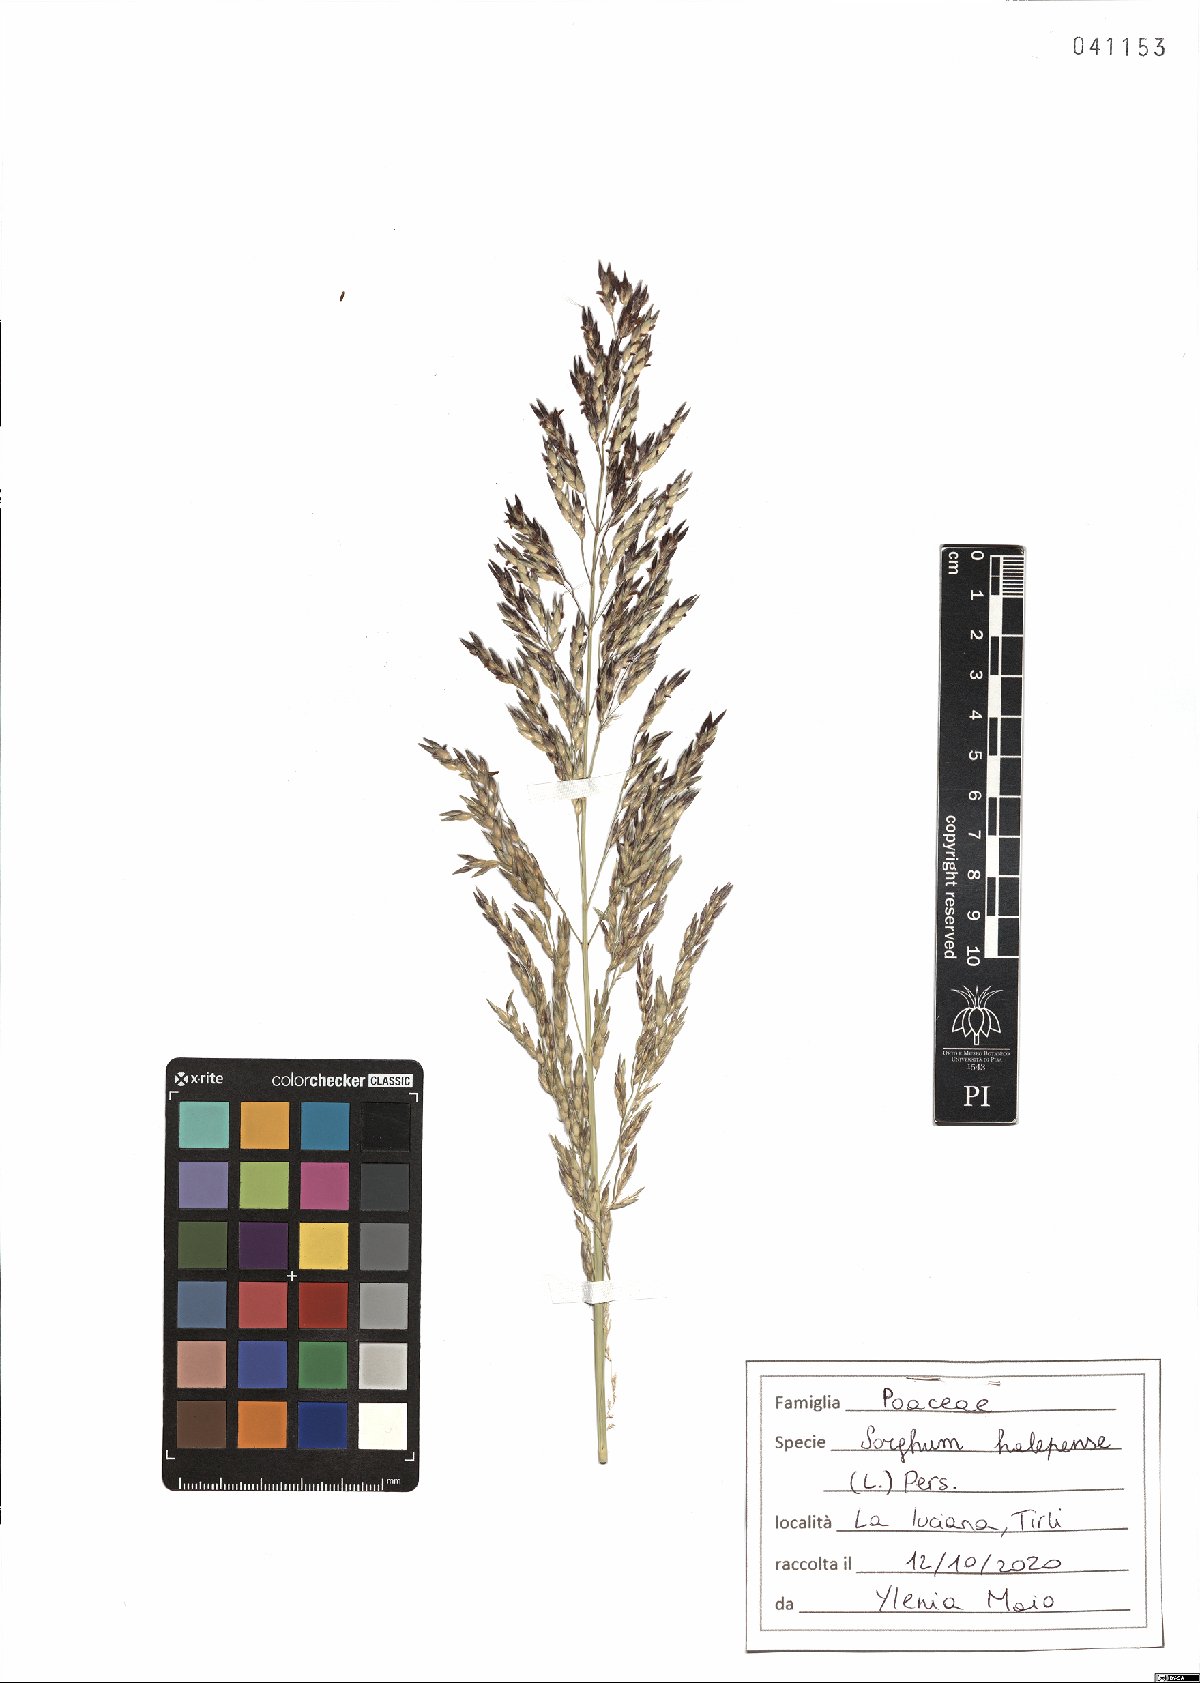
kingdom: Plantae
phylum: Tracheophyta
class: Liliopsida
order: Poales
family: Poaceae
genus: Sorghum
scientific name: Sorghum halepense
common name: Johnson-grass
